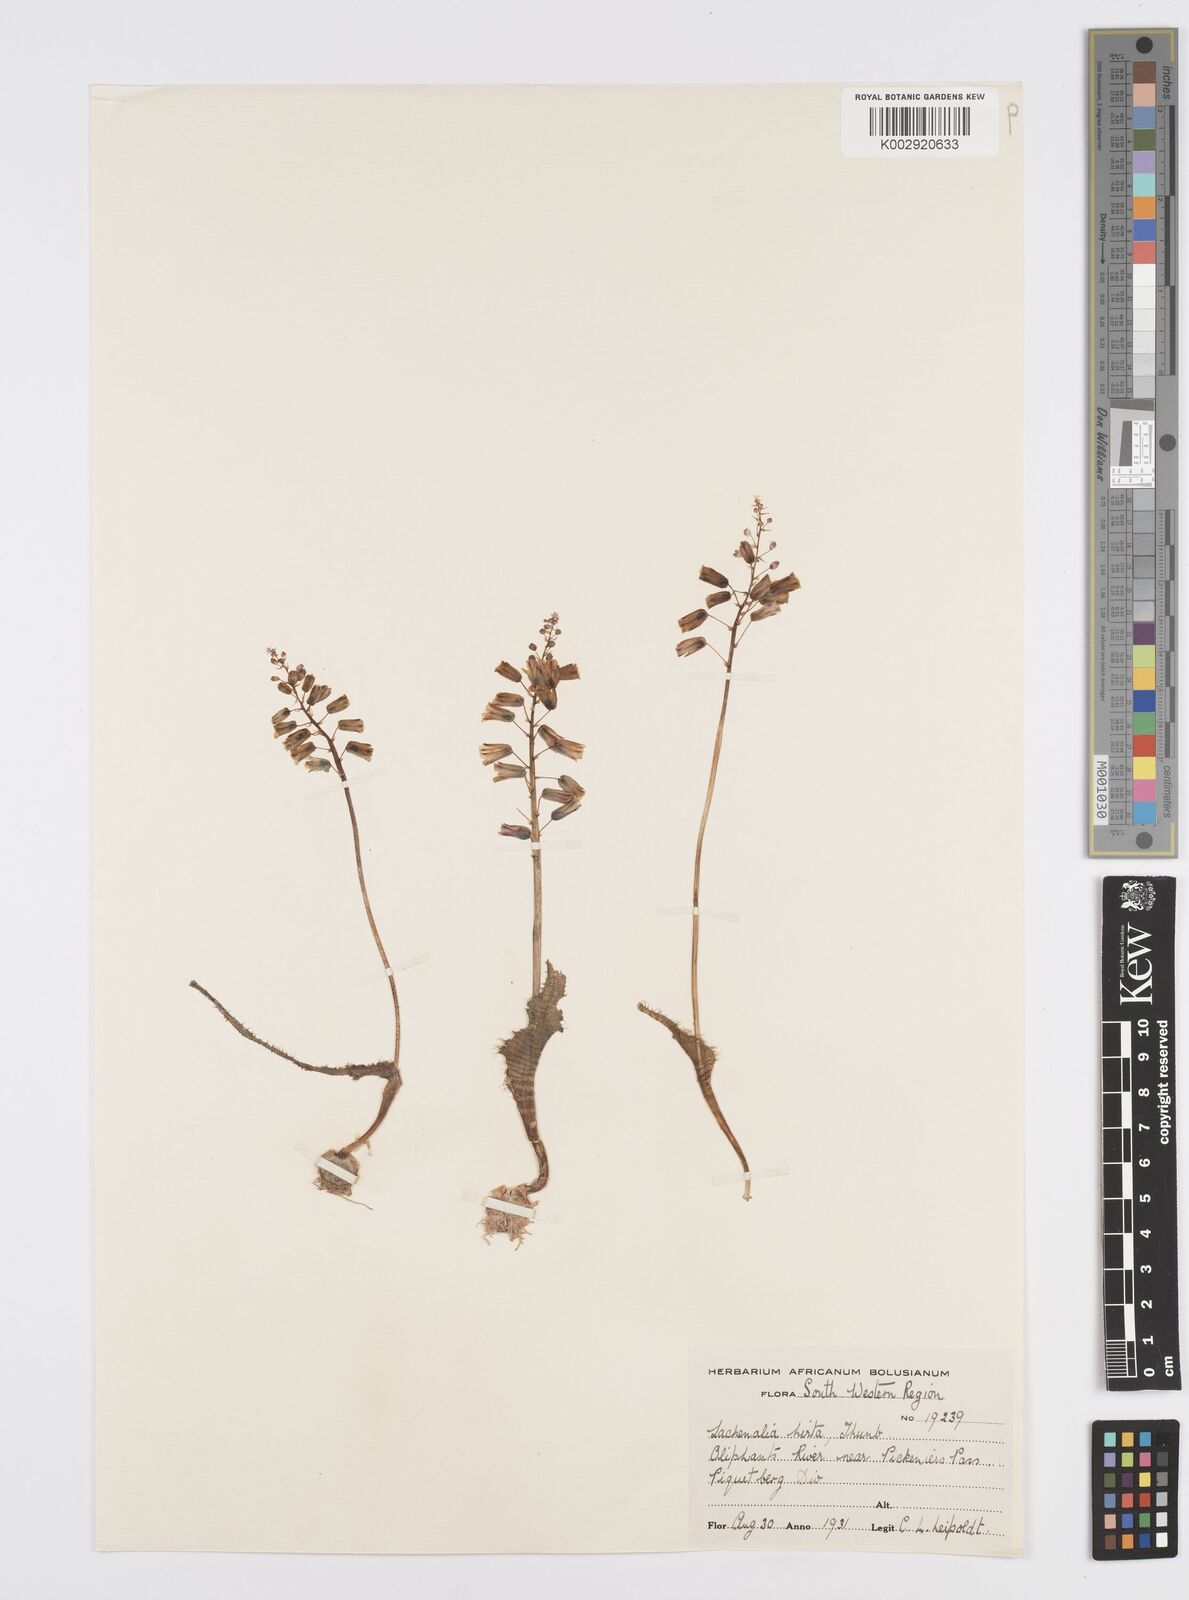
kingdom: Plantae
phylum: Tracheophyta
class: Liliopsida
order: Asparagales
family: Asparagaceae
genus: Lachenalia
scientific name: Lachenalia hirta
